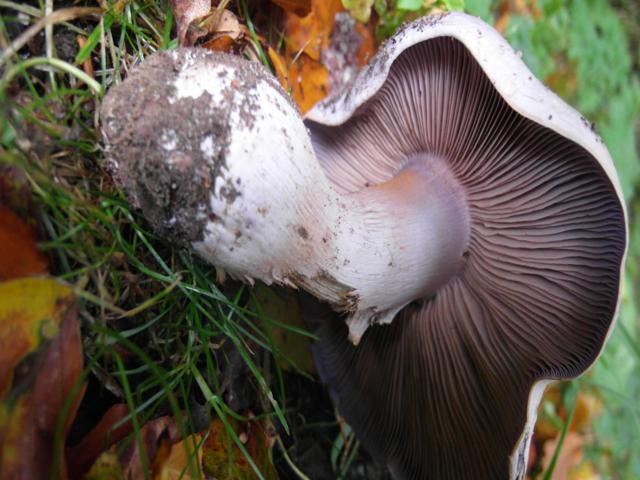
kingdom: Fungi
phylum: Basidiomycota
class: Agaricomycetes
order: Agaricales
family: Cortinariaceae
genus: Cortinarius
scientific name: Cortinarius largus
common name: violetrandet slørhat
